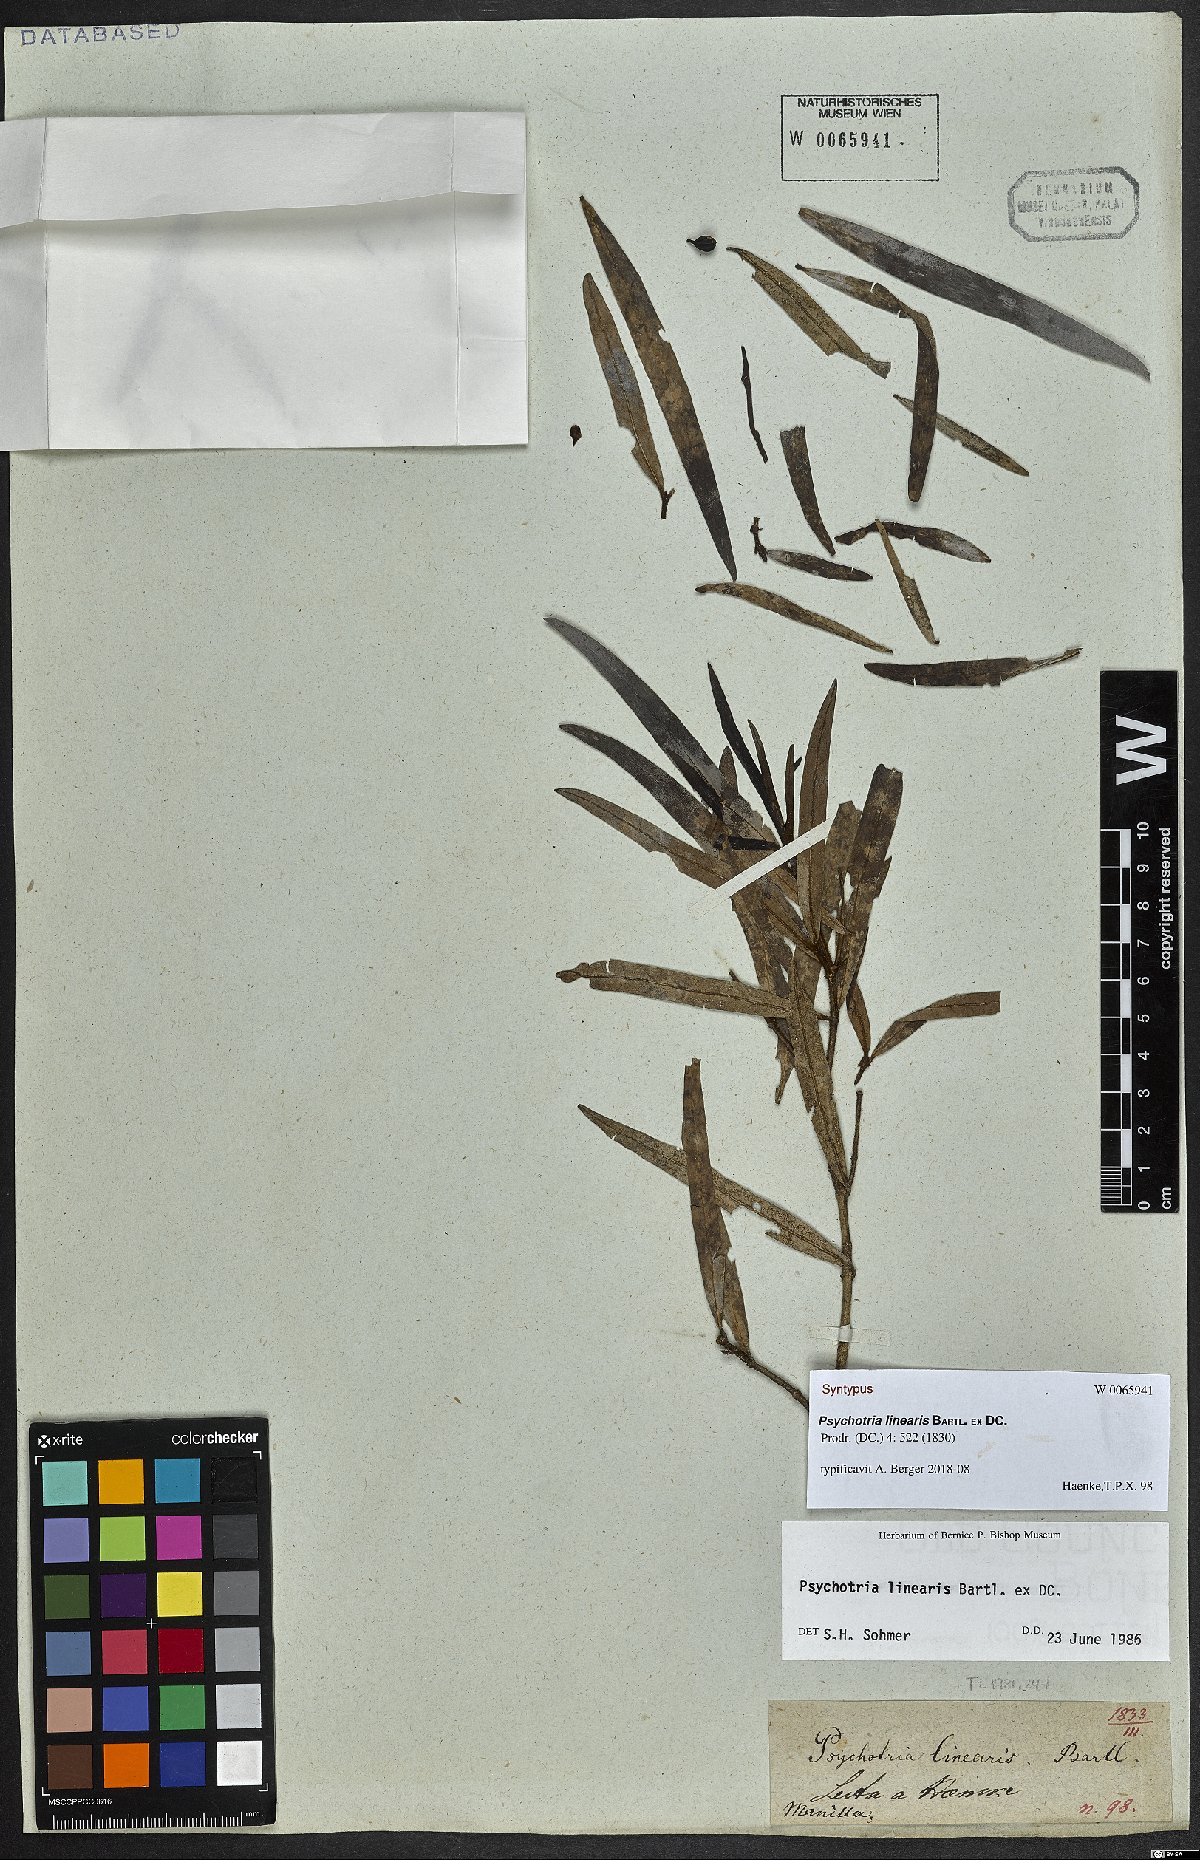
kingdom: Plantae
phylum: Tracheophyta
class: Magnoliopsida
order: Gentianales
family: Rubiaceae
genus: Psychotria
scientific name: Psychotria linearis
